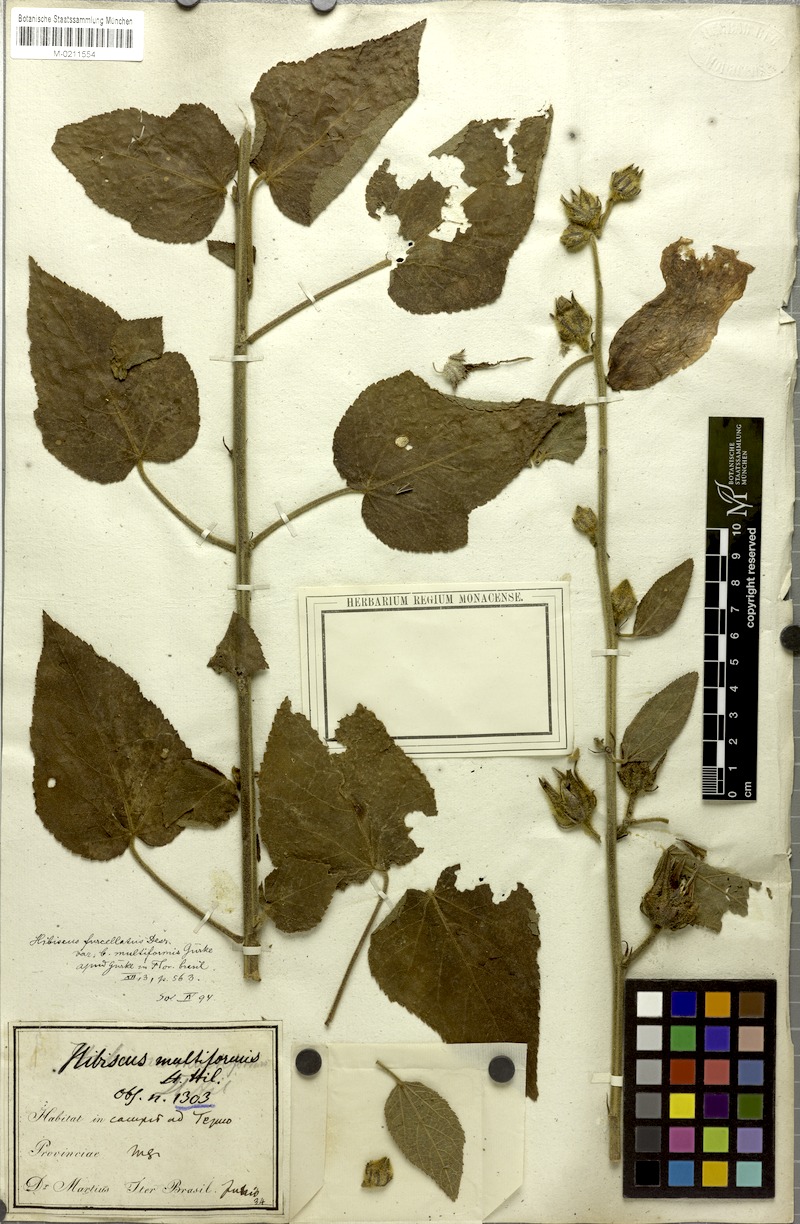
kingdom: Plantae
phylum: Tracheophyta
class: Magnoliopsida
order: Malvales
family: Malvaceae
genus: Hibiscus
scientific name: Hibiscus furcellatus
